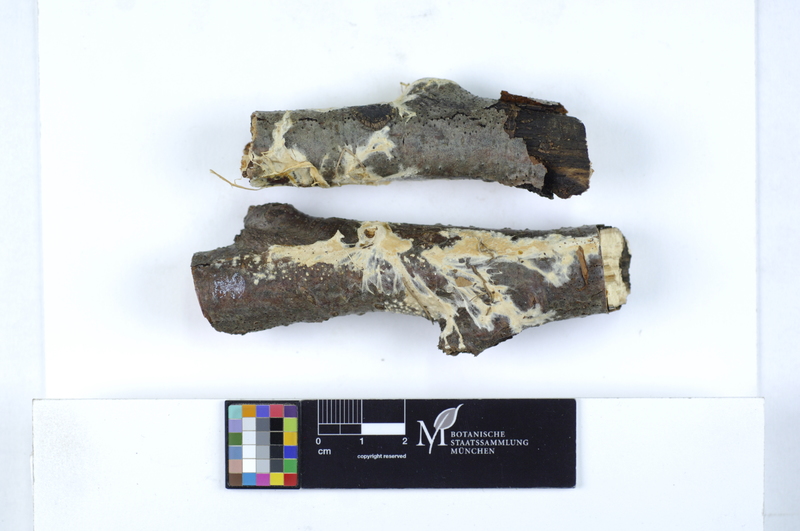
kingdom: Fungi
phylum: Basidiomycota
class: Agaricomycetes
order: Polyporales
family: Irpicaceae
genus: Crystallicutis
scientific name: Crystallicutis serpens
